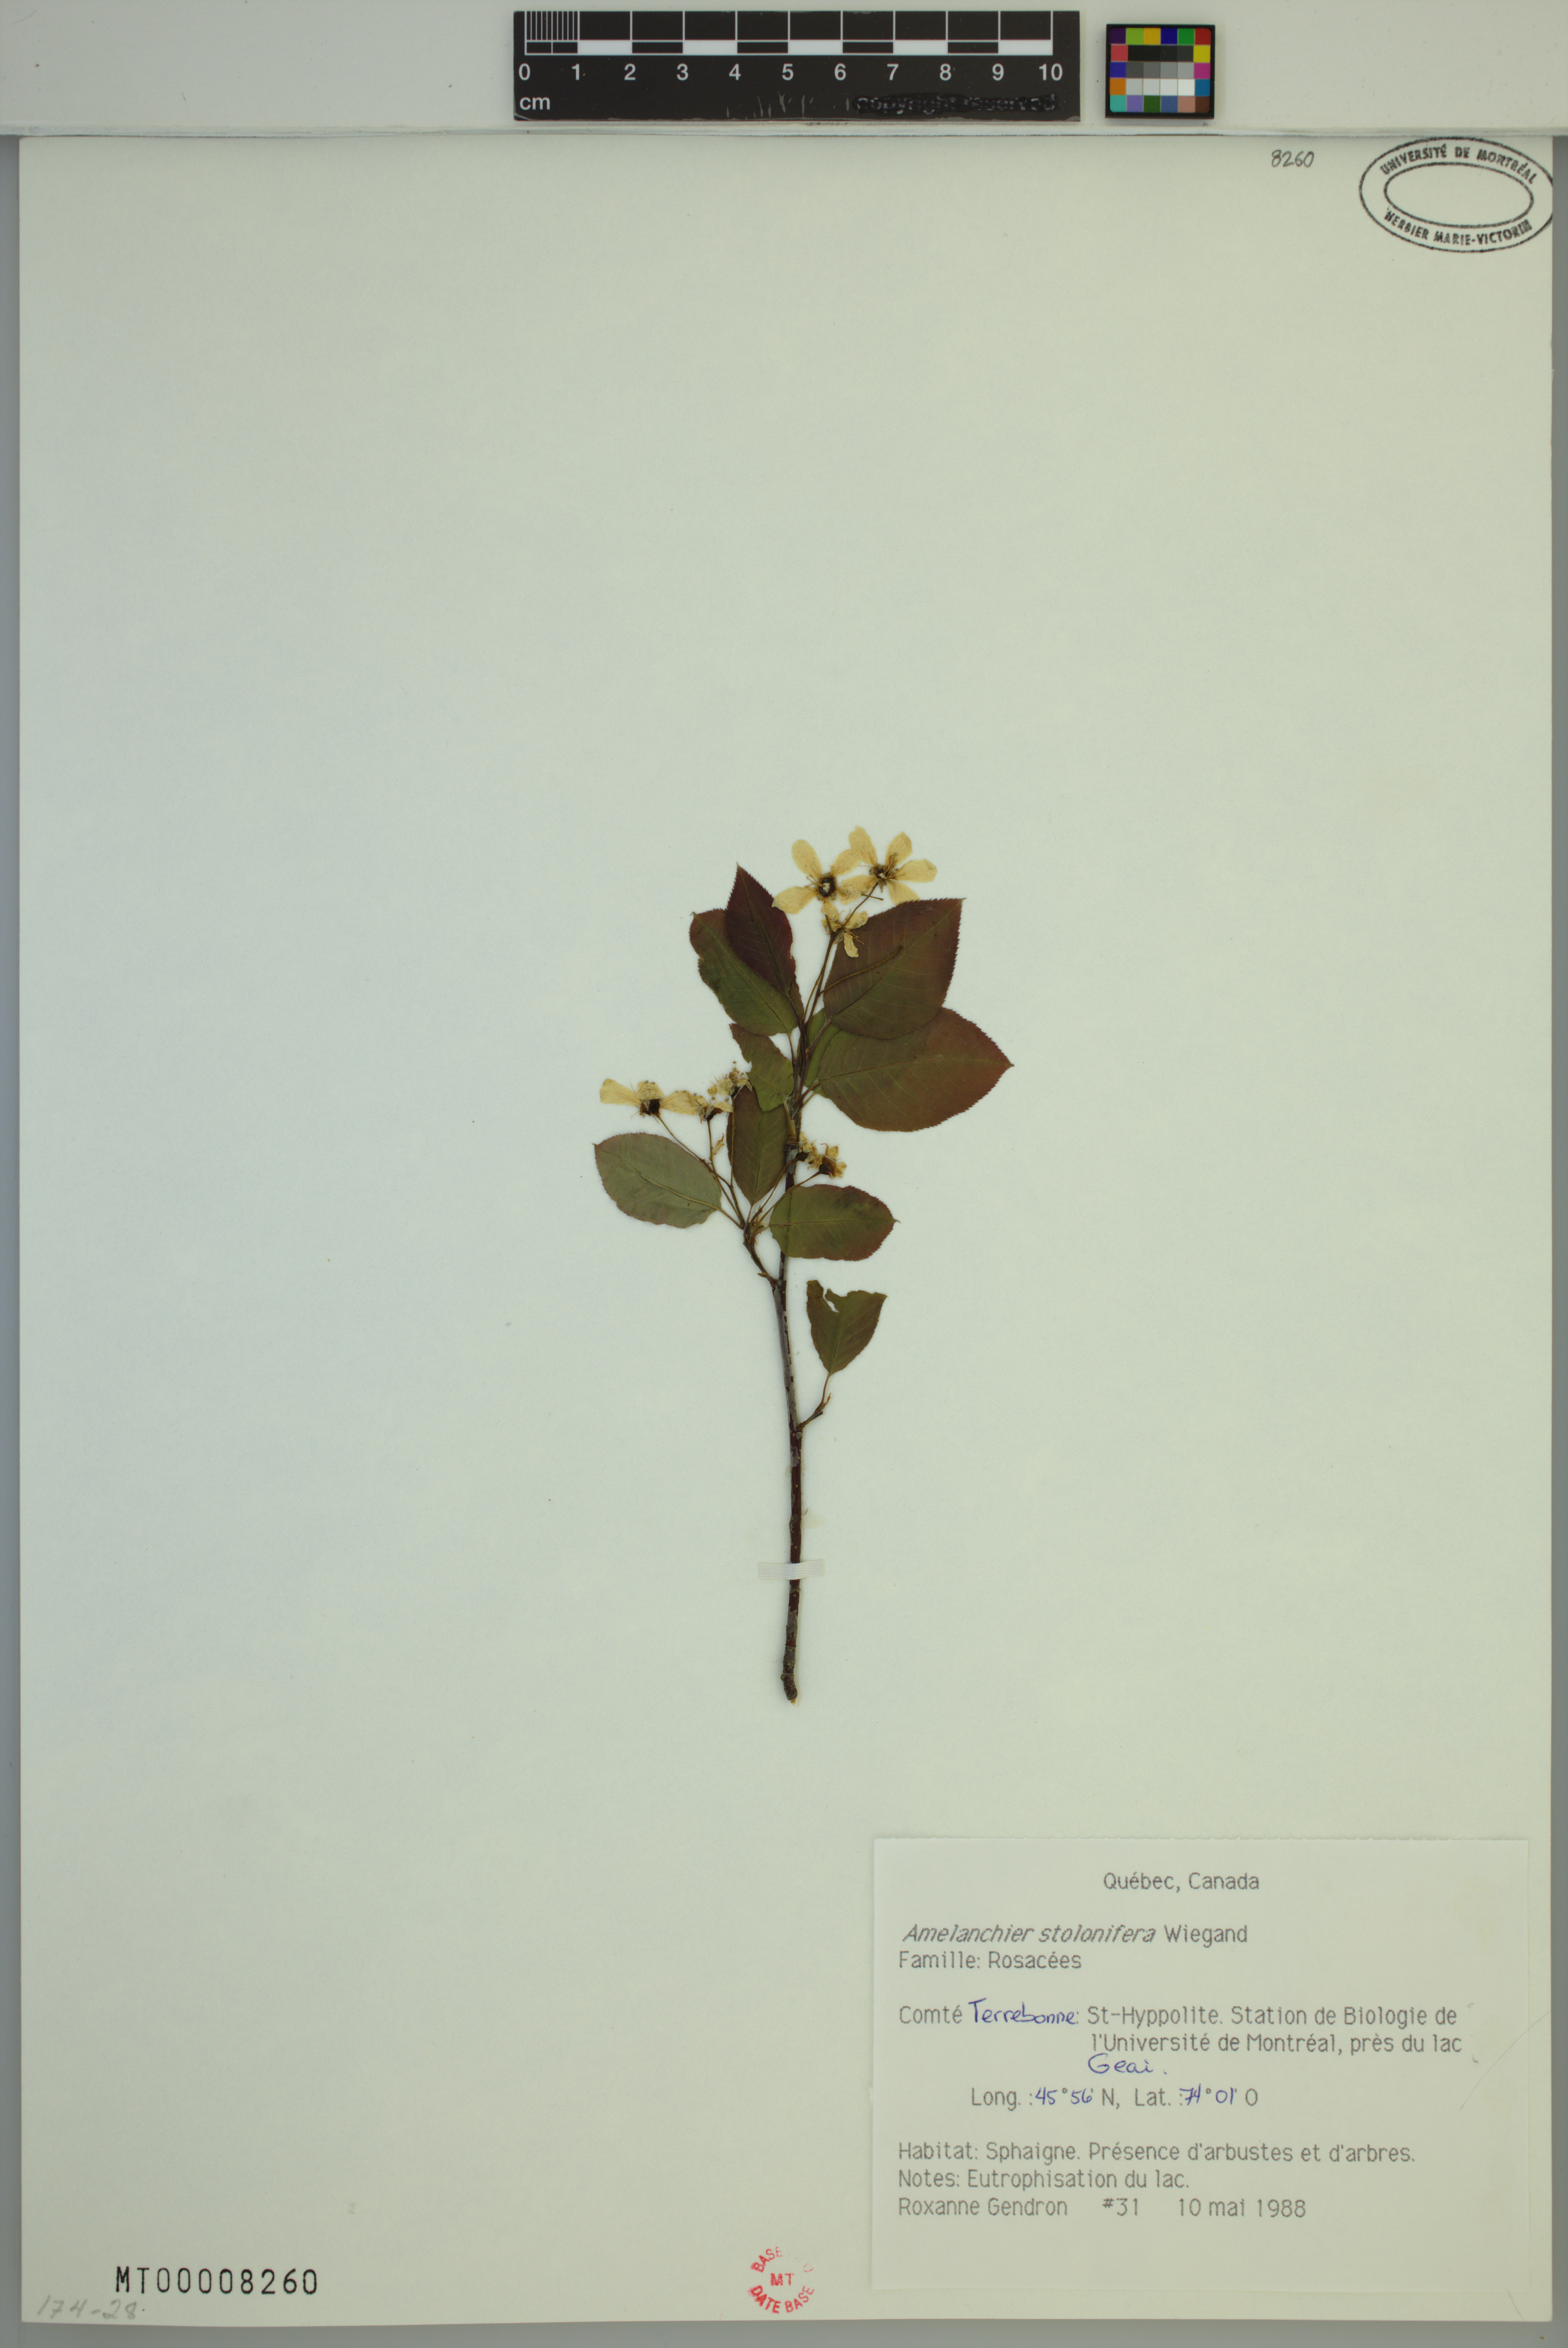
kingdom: Plantae
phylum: Tracheophyta
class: Magnoliopsida
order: Rosales
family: Rosaceae
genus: Amelanchier
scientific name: Amelanchier humilis
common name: Low juneberry
